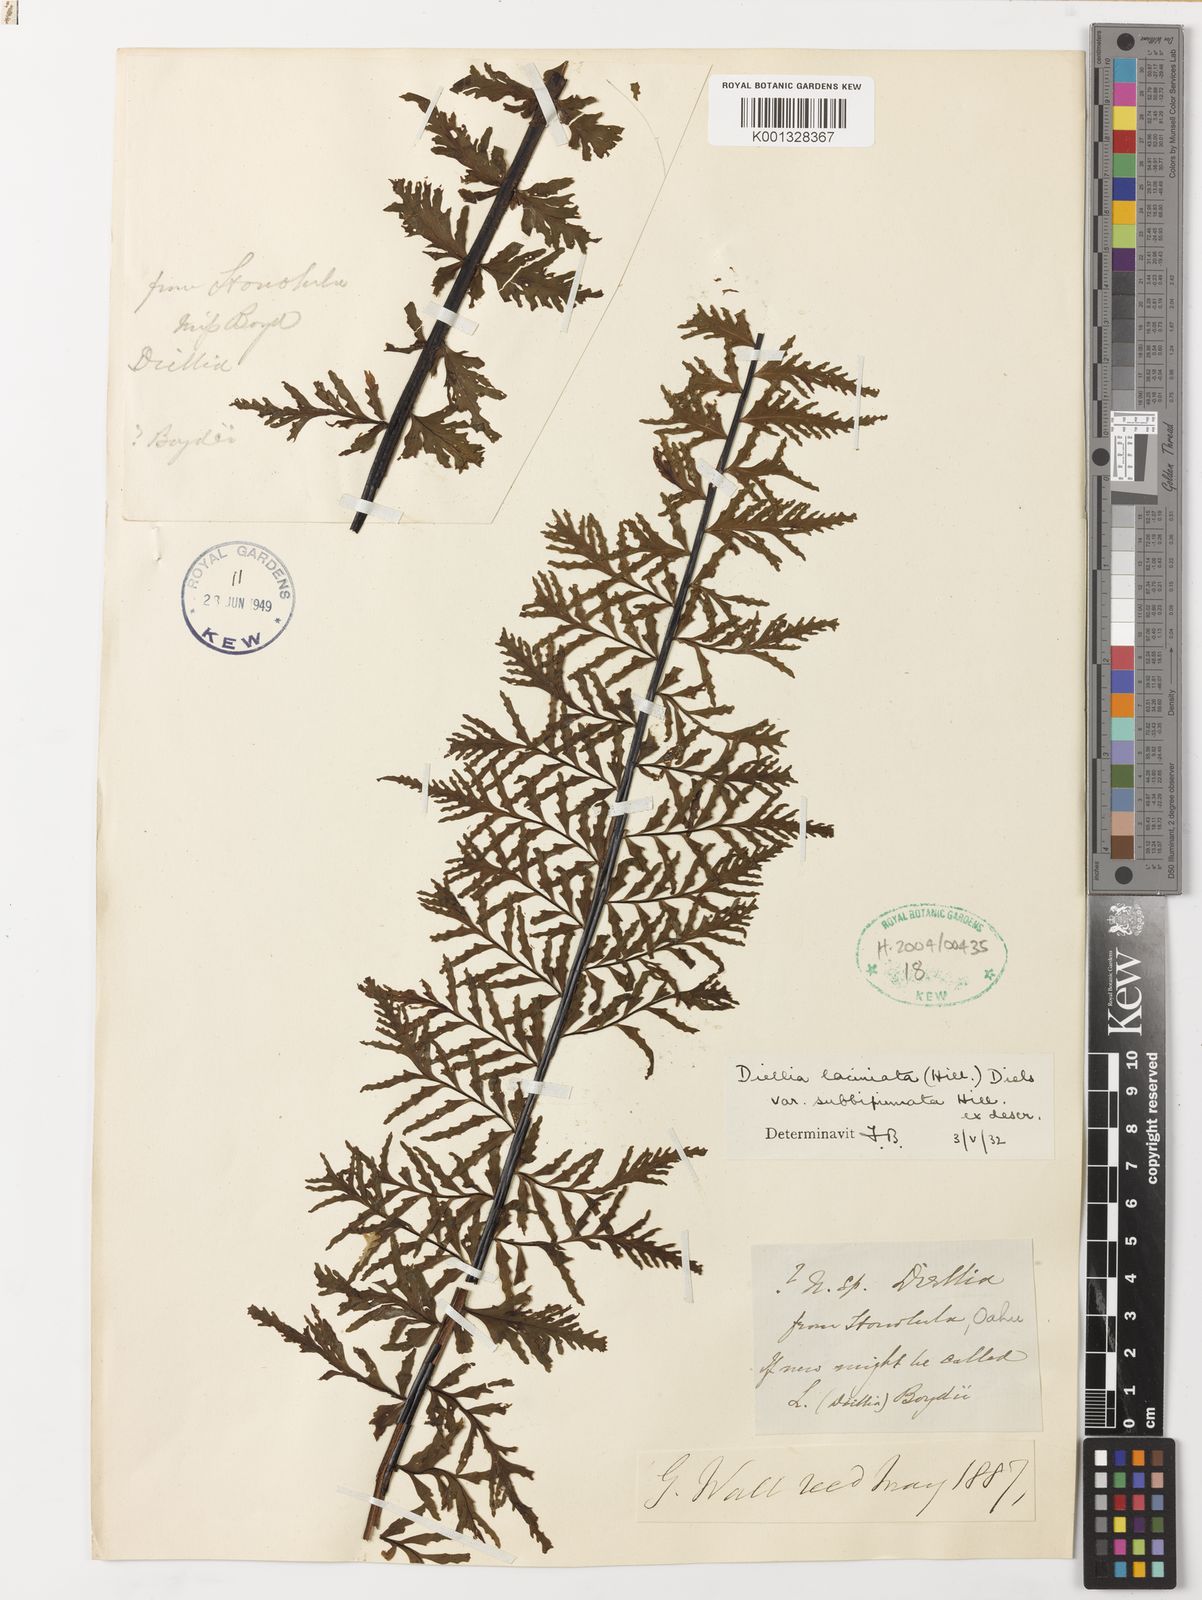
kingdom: Plantae
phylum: Tracheophyta
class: Polypodiopsida
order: Polypodiales
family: Aspleniaceae
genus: Asplenium
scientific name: Asplenium diellaciniatum
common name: Cutleaf island spleenwort
